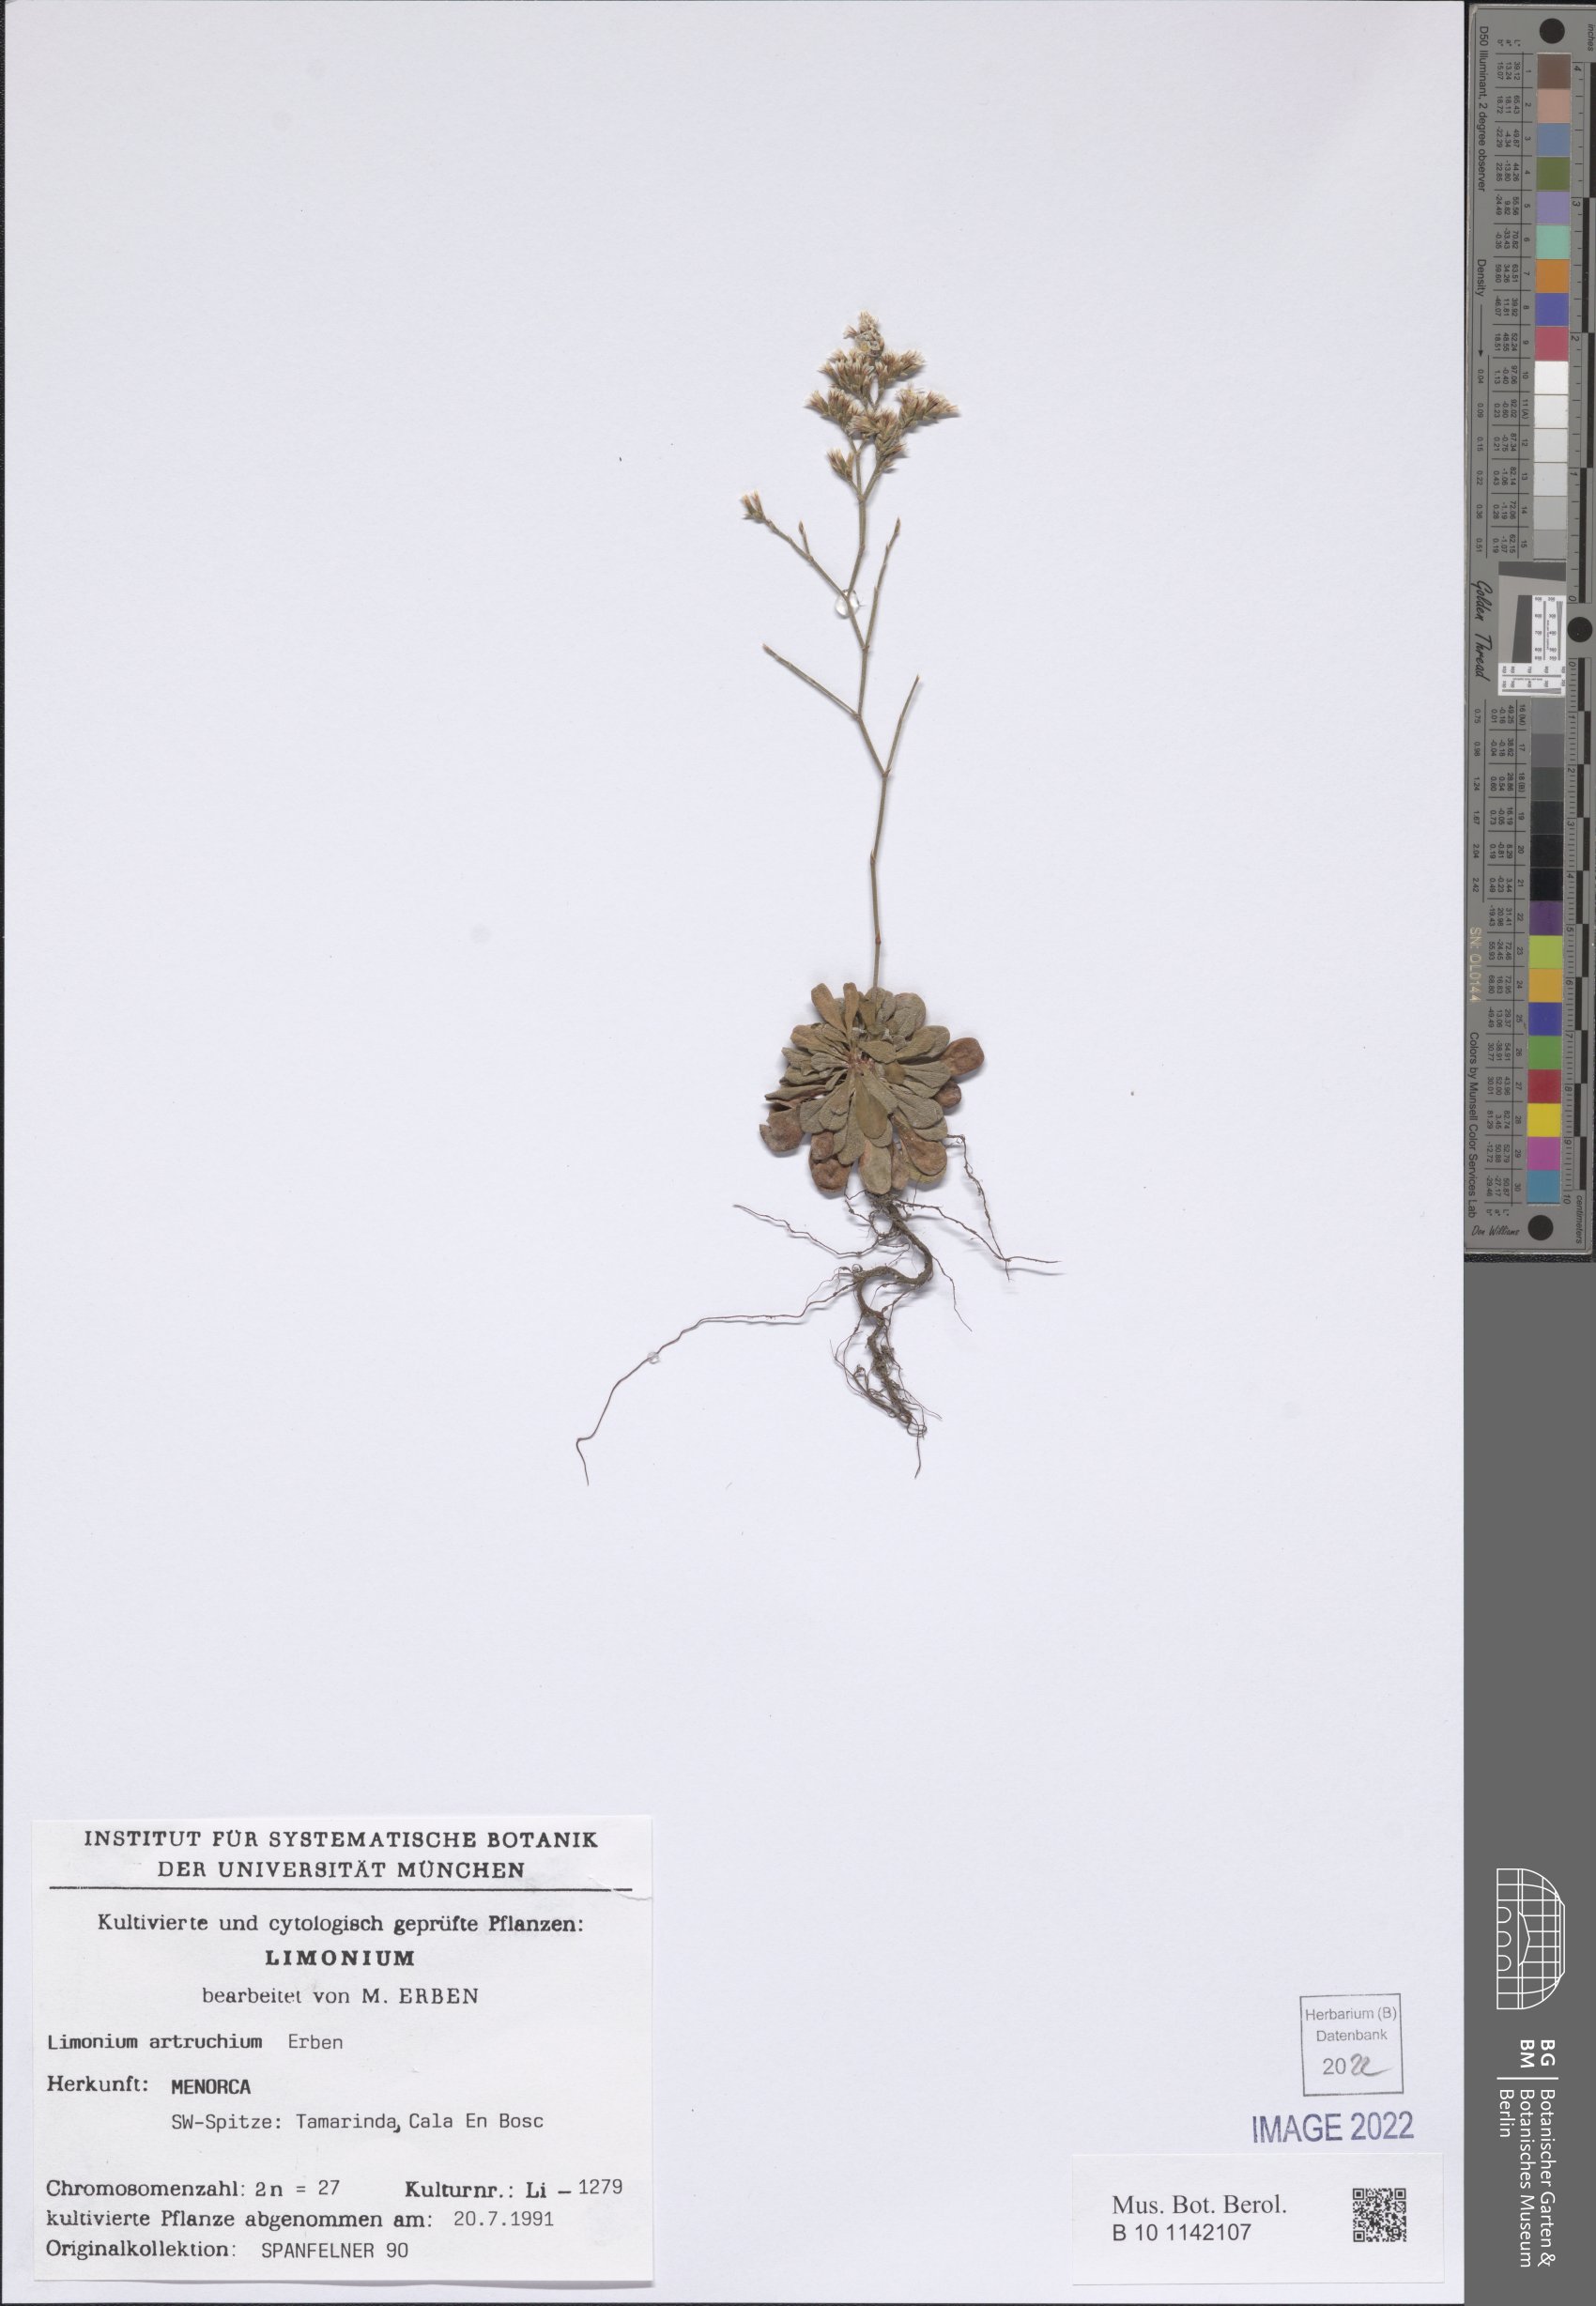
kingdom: Plantae
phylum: Tracheophyta
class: Magnoliopsida
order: Caryophyllales
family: Plumbaginaceae
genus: Limonium
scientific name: Limonium artruchium
